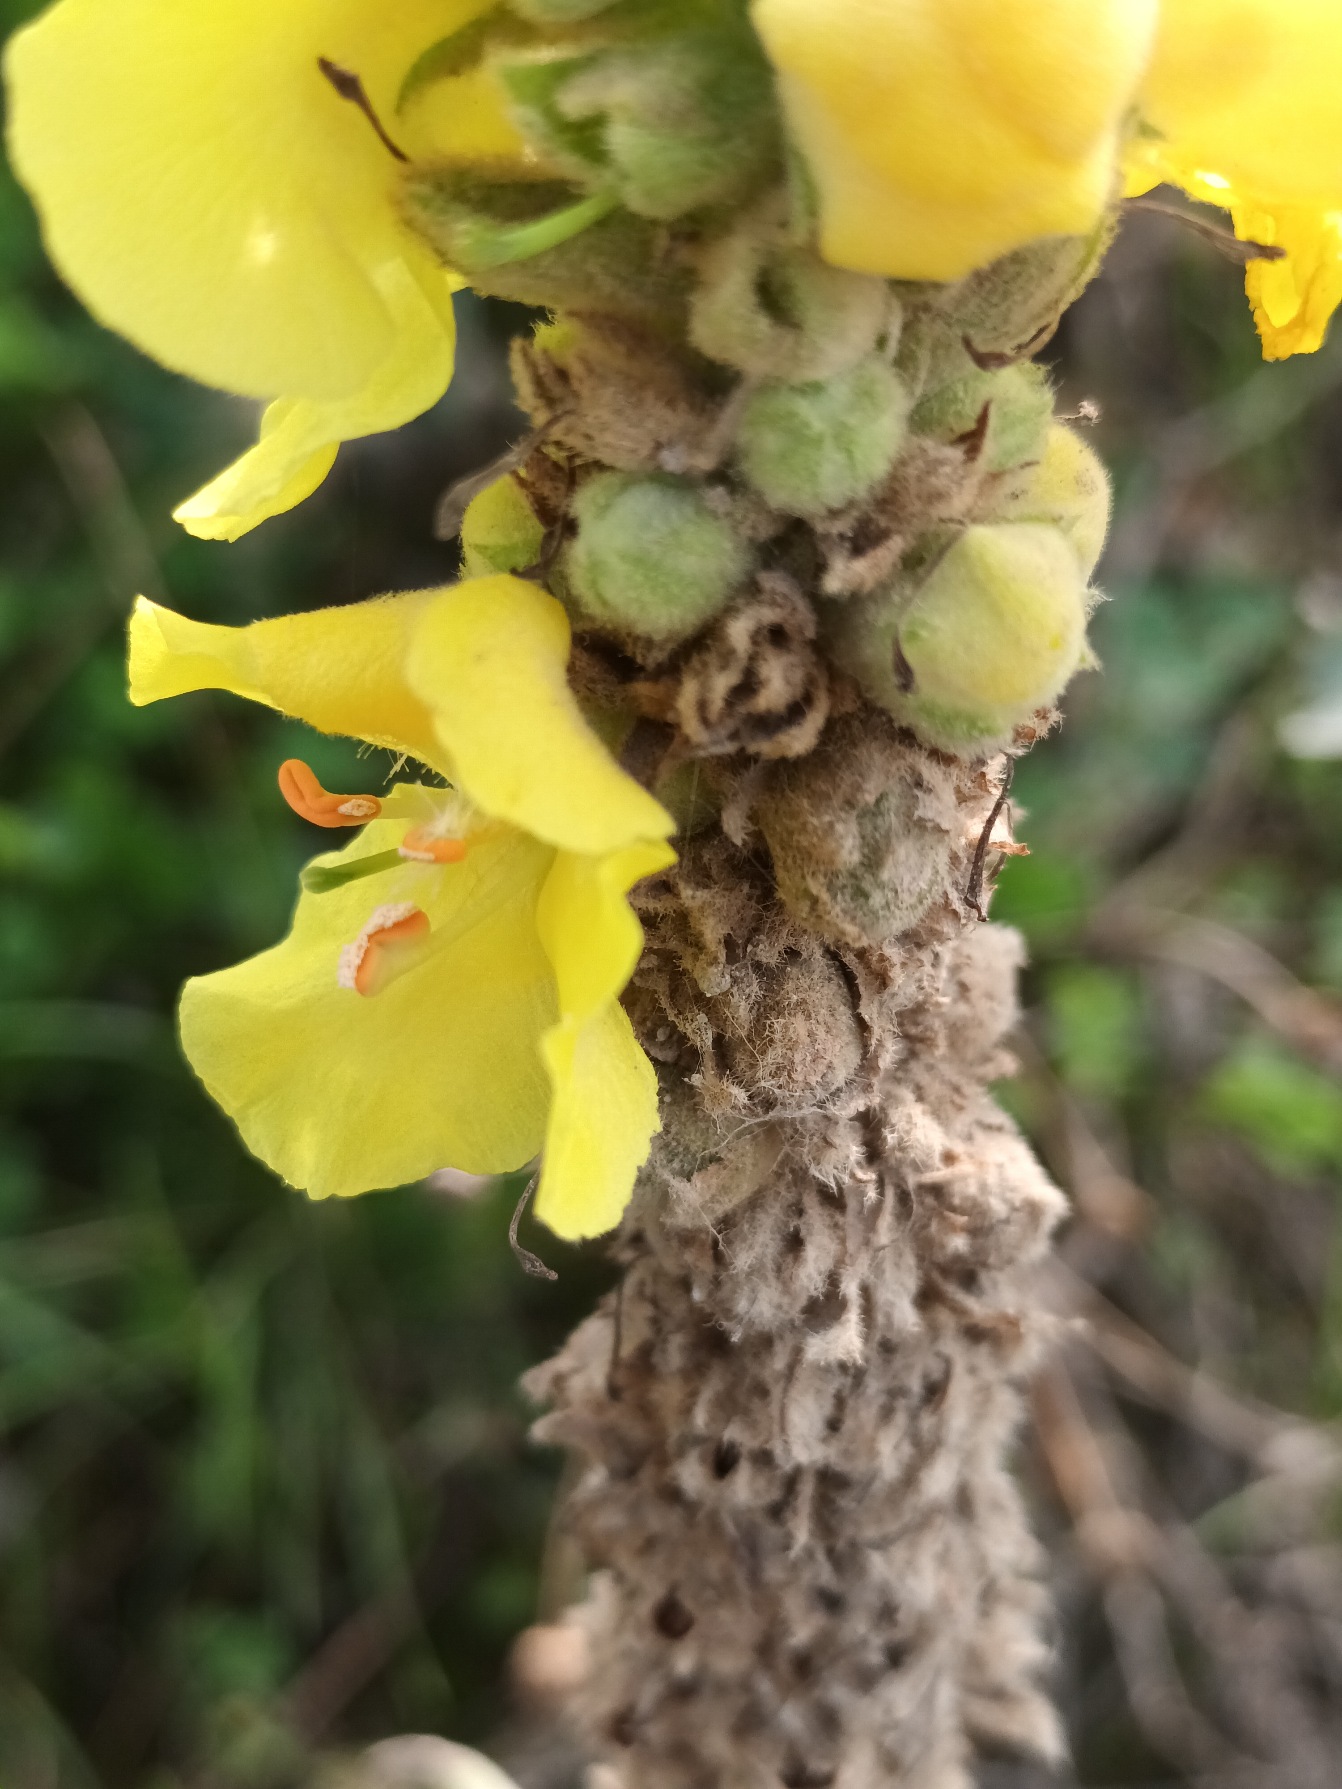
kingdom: Plantae
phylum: Tracheophyta
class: Magnoliopsida
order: Lamiales
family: Scrophulariaceae
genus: Verbascum
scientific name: Verbascum densiflorum
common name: Uldbladet kongelys
